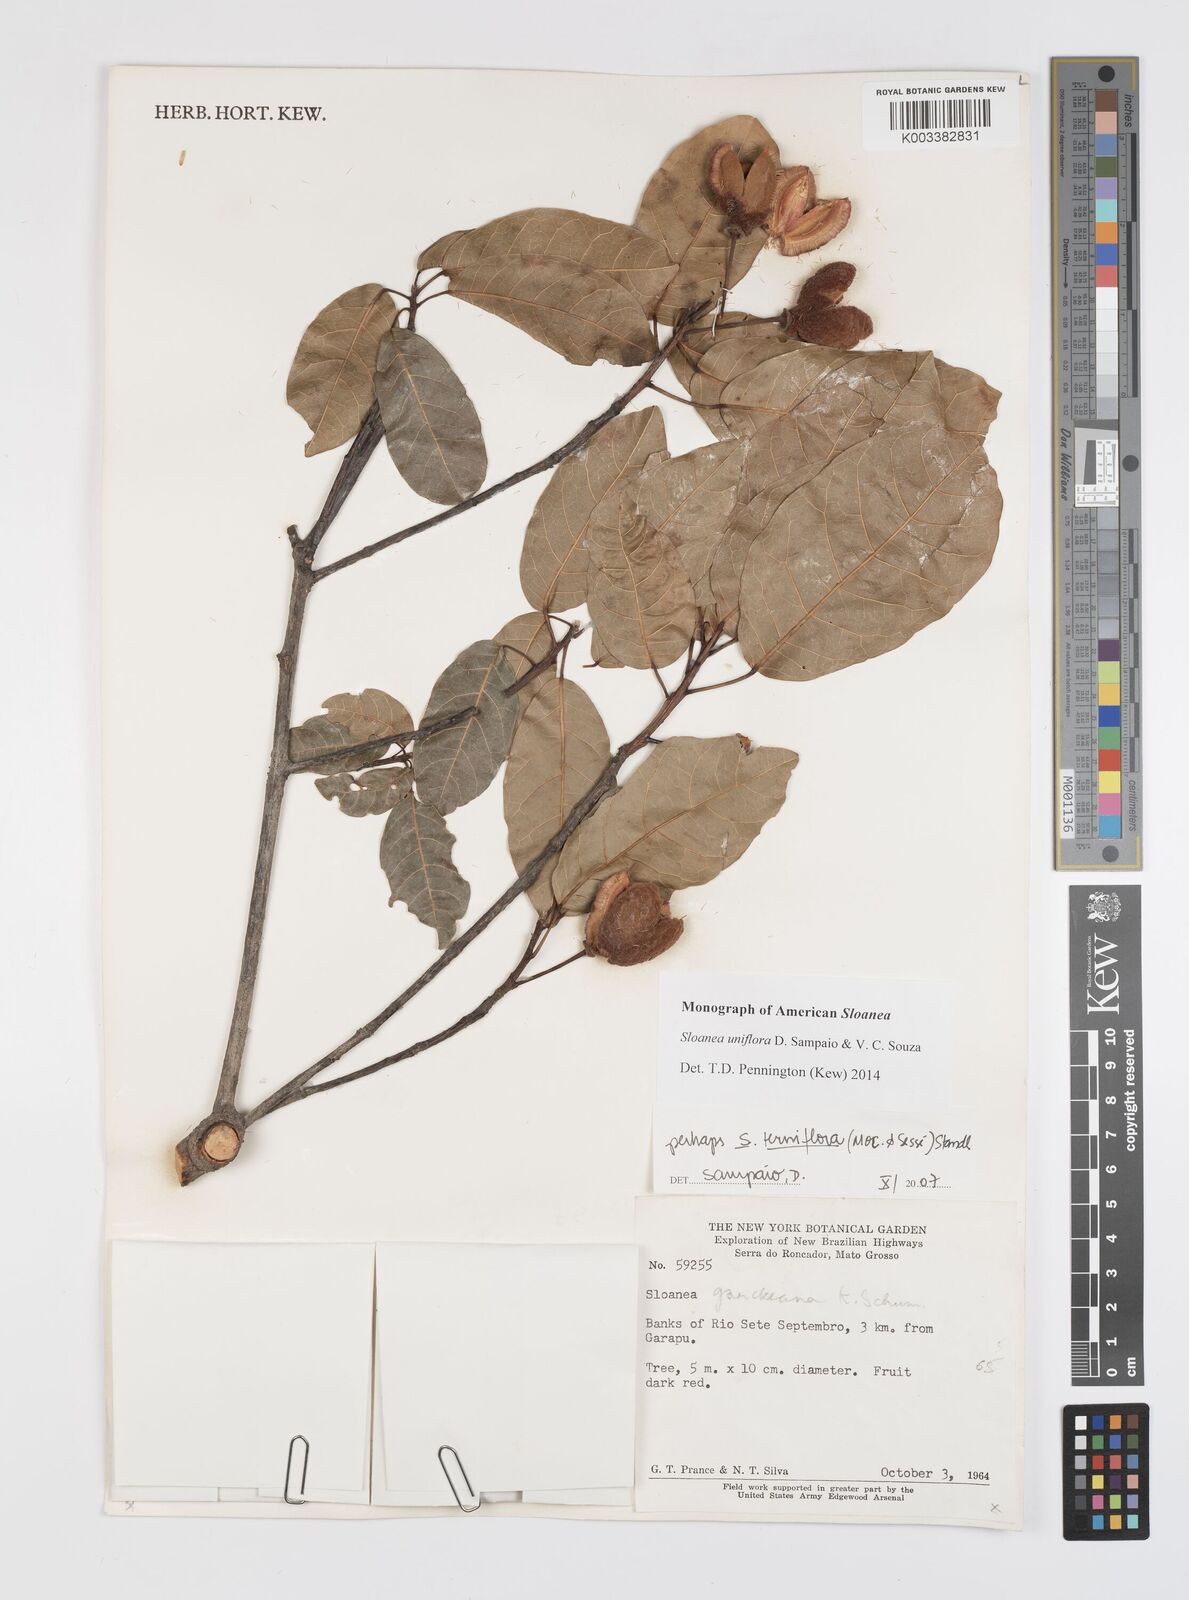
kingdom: Plantae
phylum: Tracheophyta
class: Magnoliopsida
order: Oxalidales
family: Elaeocarpaceae
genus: Sloanea
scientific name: Sloanea uniflora
